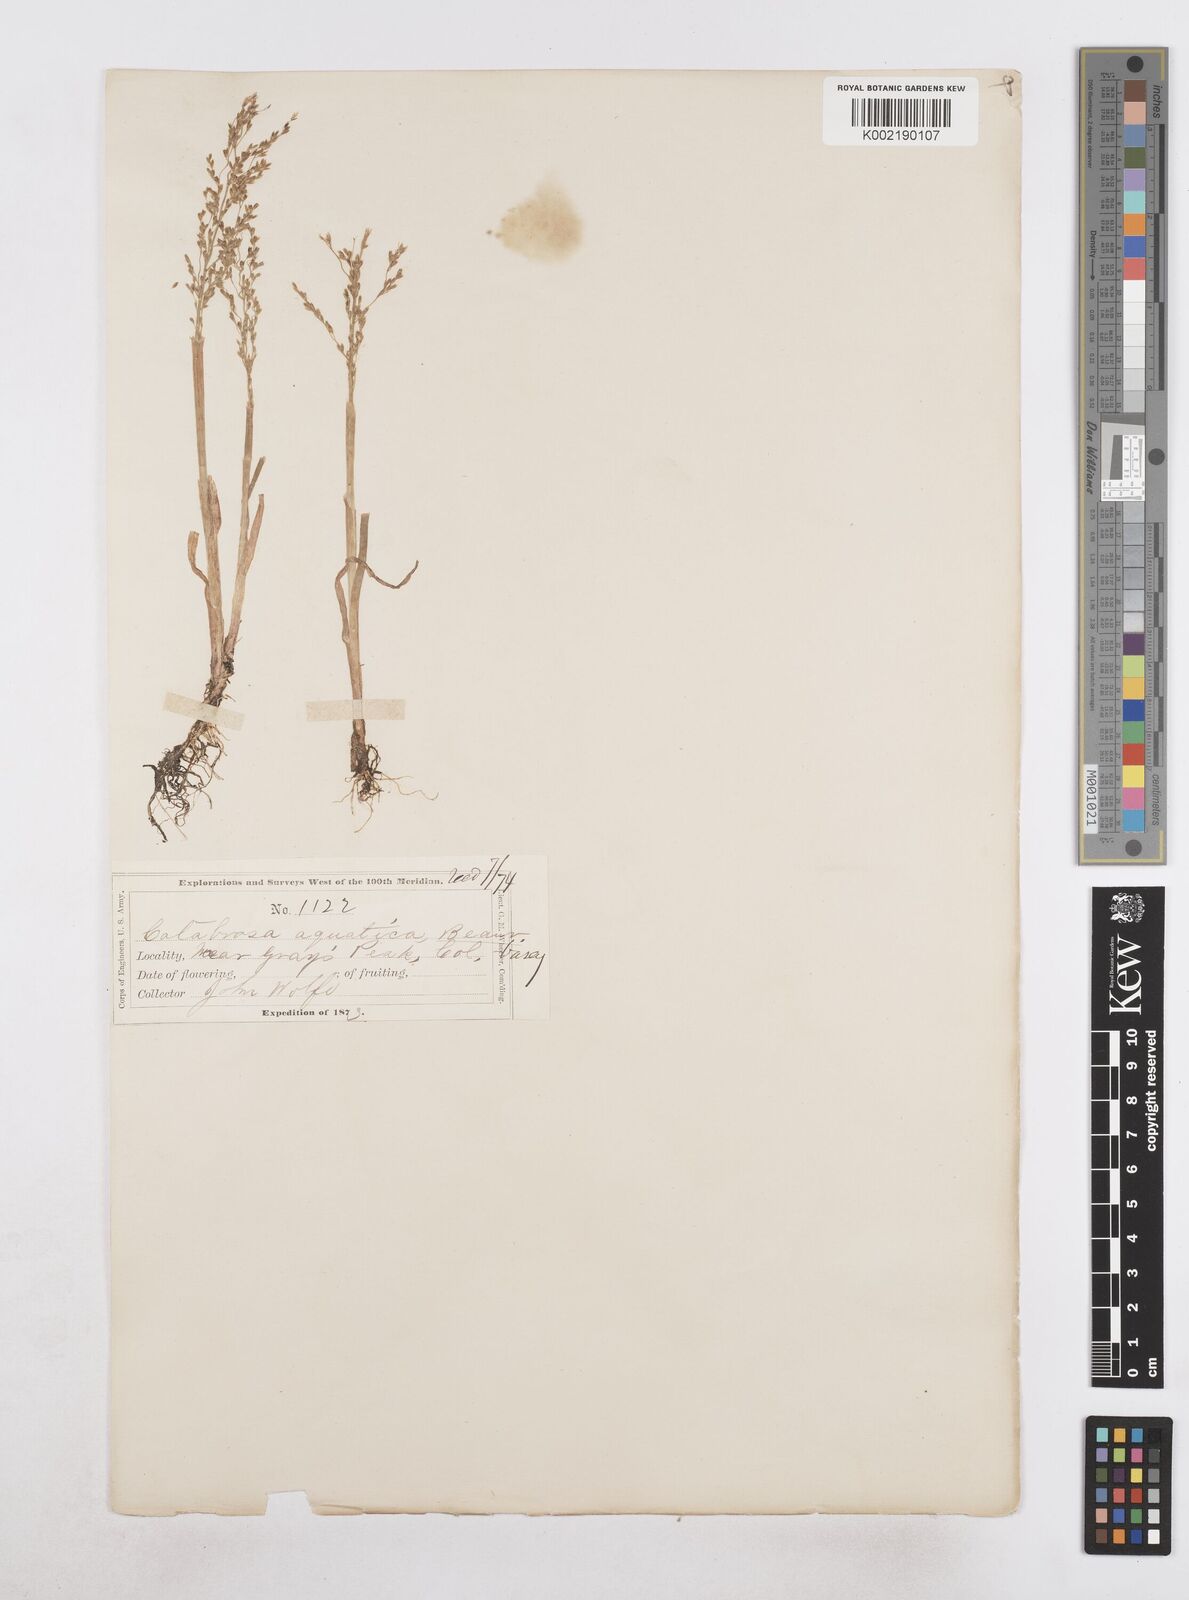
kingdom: Plantae
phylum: Tracheophyta
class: Liliopsida
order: Poales
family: Poaceae
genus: Catabrosa
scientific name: Catabrosa aquatica
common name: Whorl-grass
